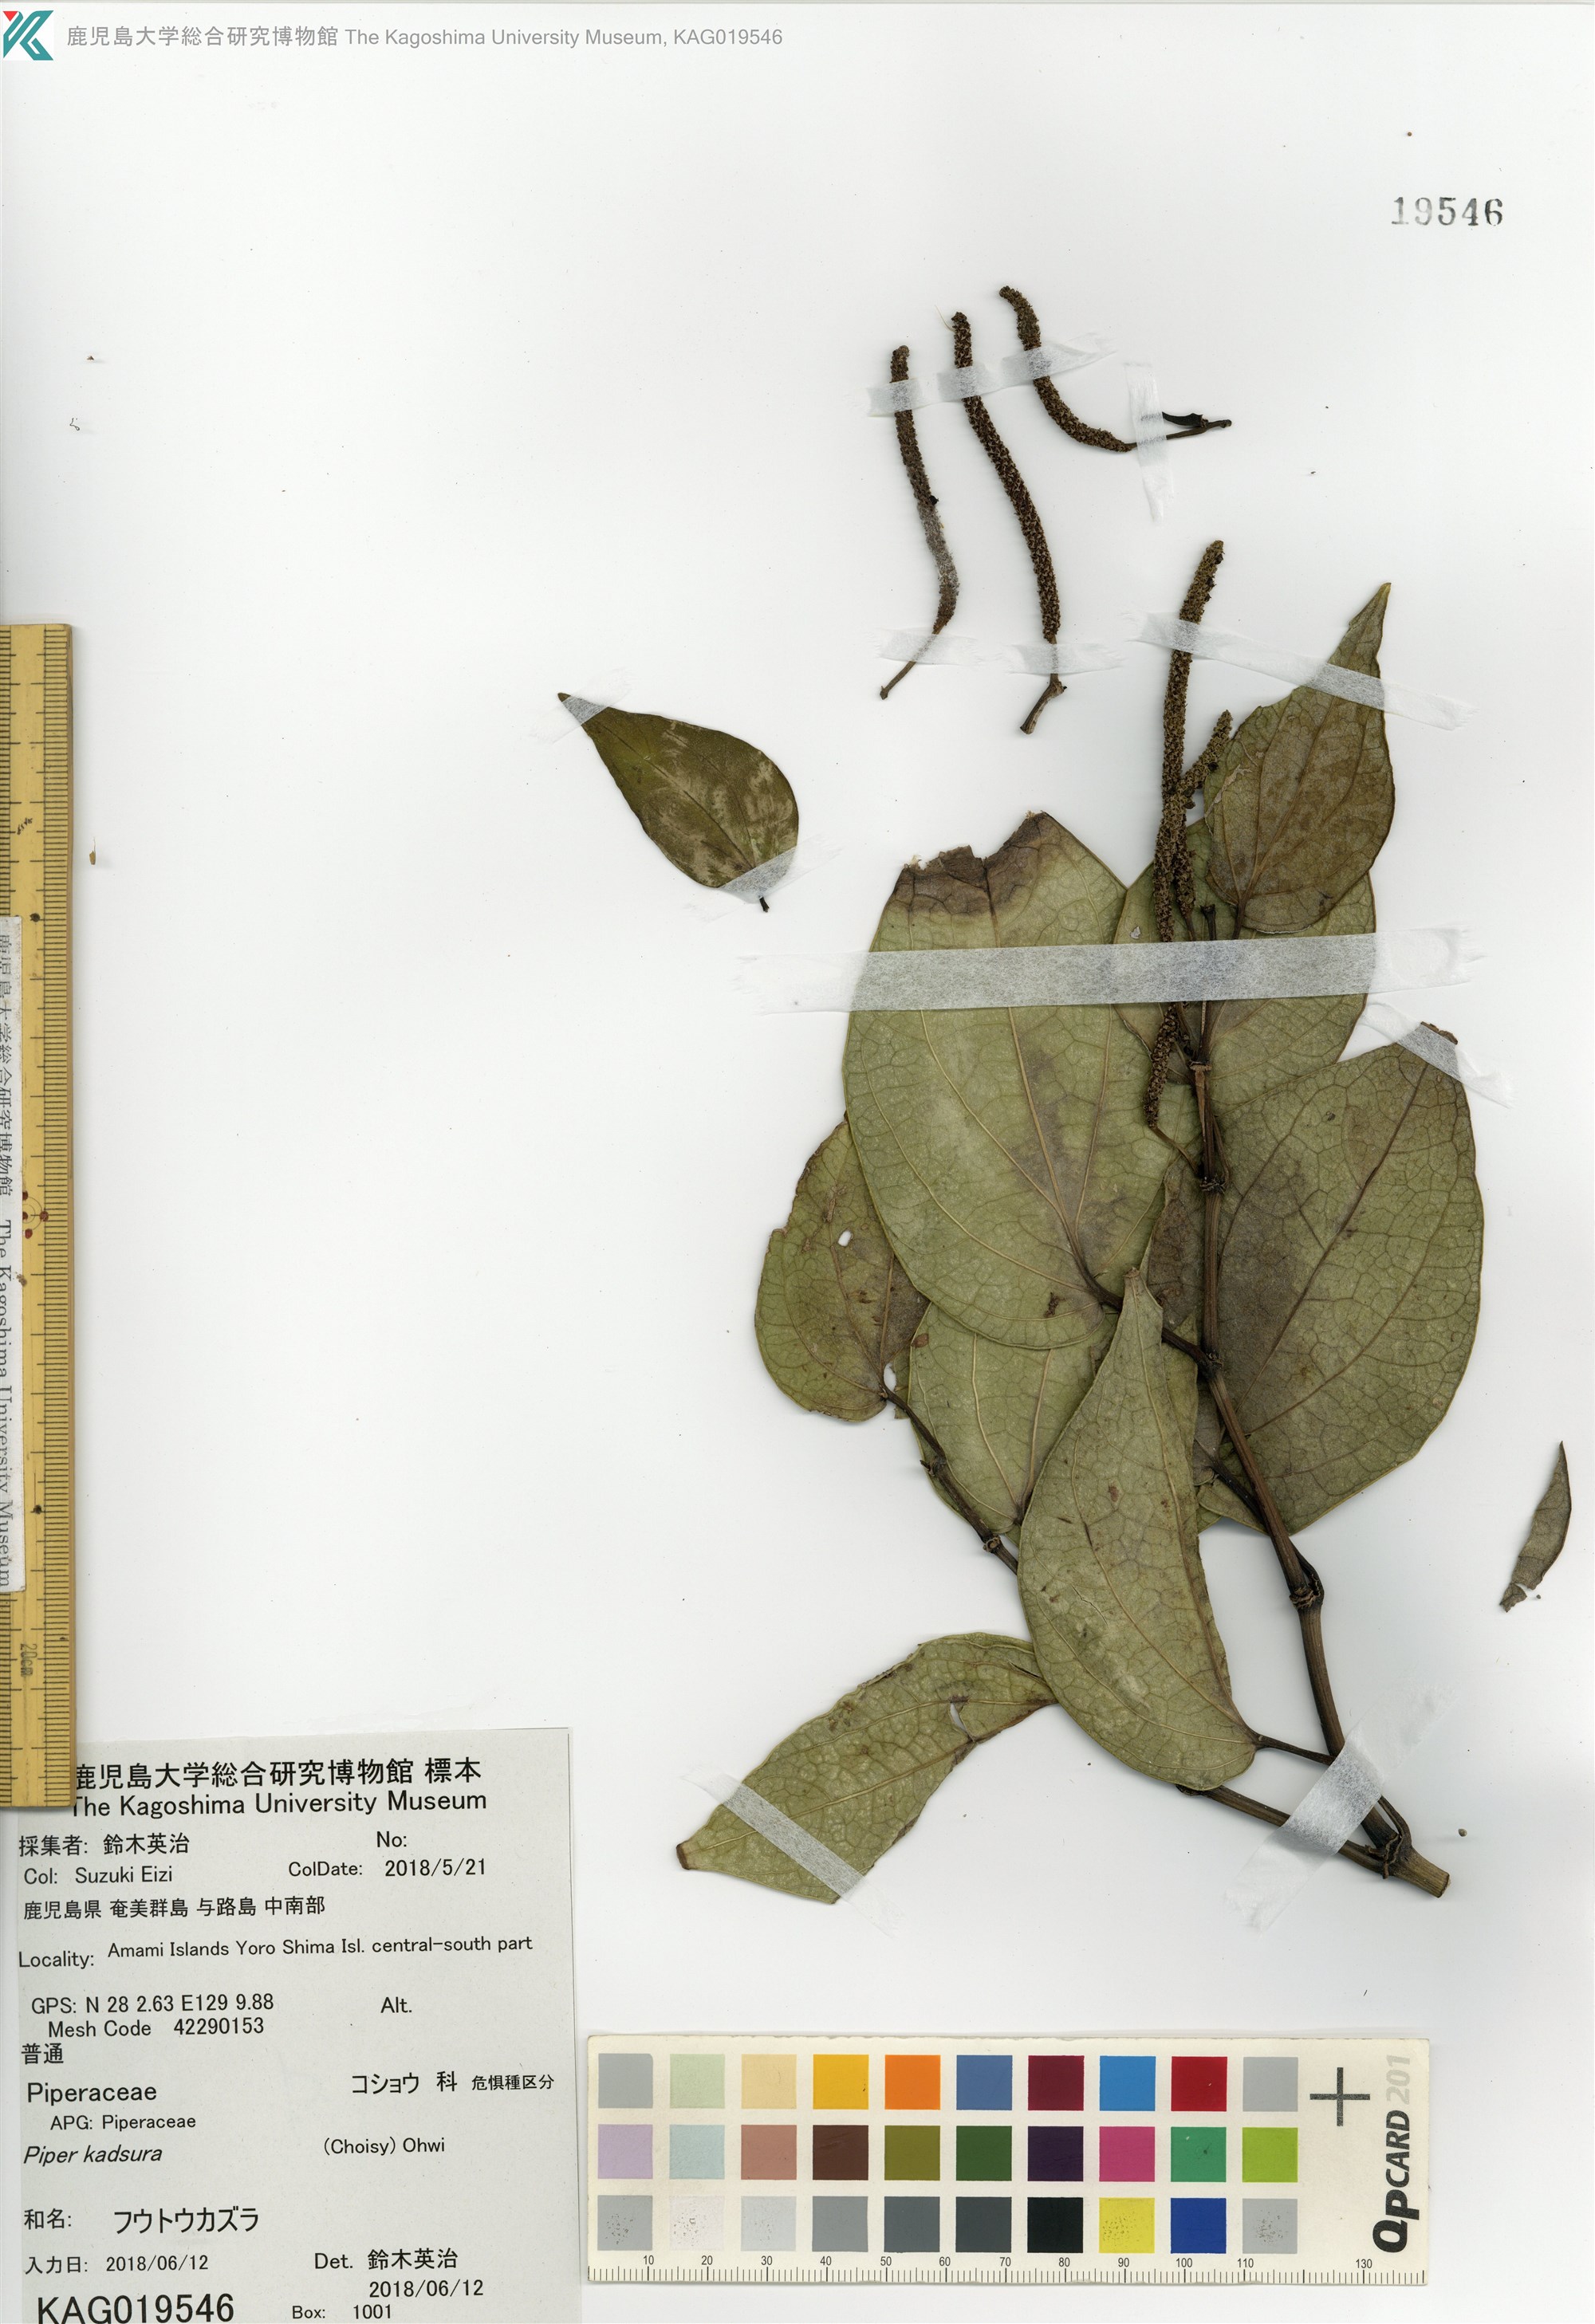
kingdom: Plantae
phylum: Tracheophyta
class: Magnoliopsida
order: Piperales
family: Piperaceae
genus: Piper
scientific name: Piper kadsura
